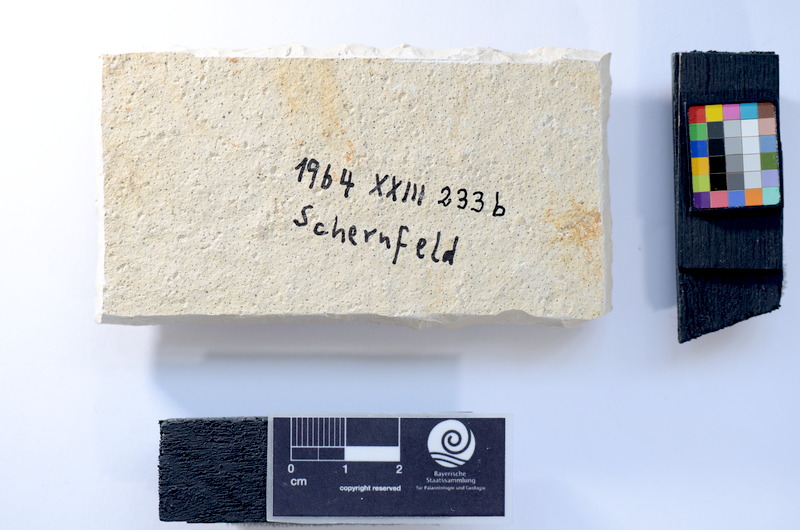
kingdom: Animalia
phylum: Chordata
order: Salmoniformes
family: Orthogonikleithridae
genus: Leptolepides
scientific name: Leptolepides sprattiformis
